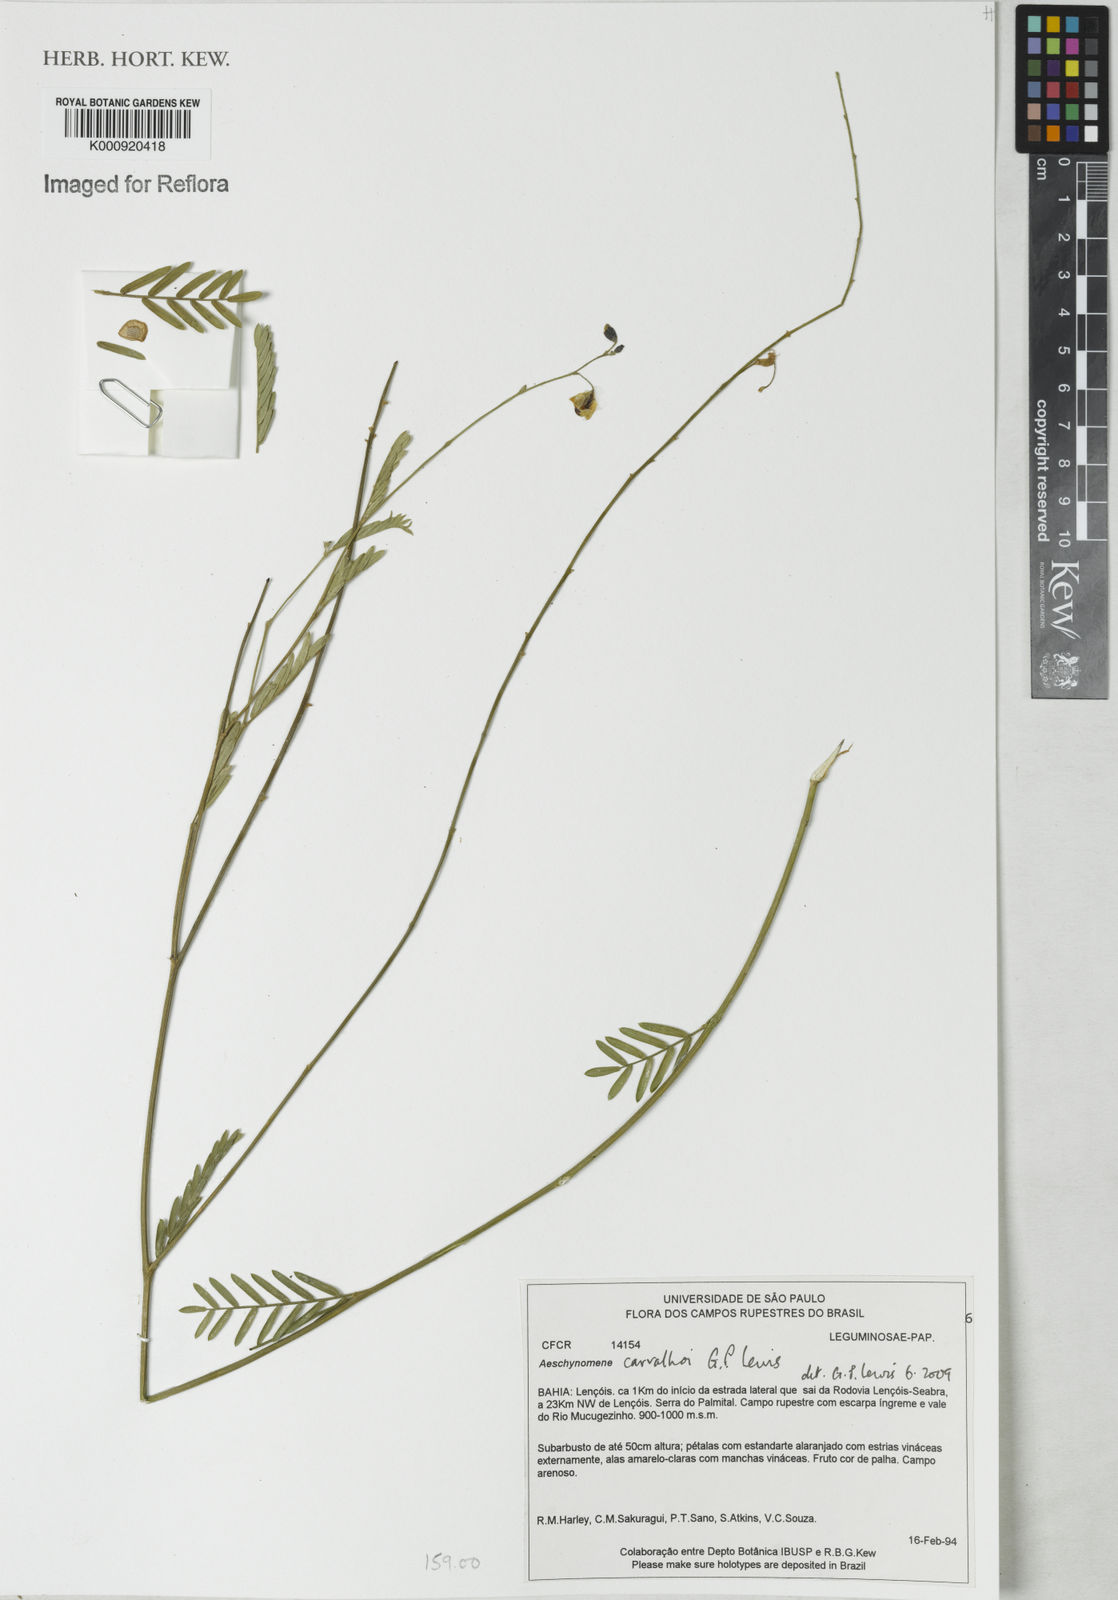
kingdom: Plantae
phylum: Tracheophyta
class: Magnoliopsida
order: Fabales
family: Fabaceae
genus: Ctenodon
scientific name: Ctenodon carvalhoi
